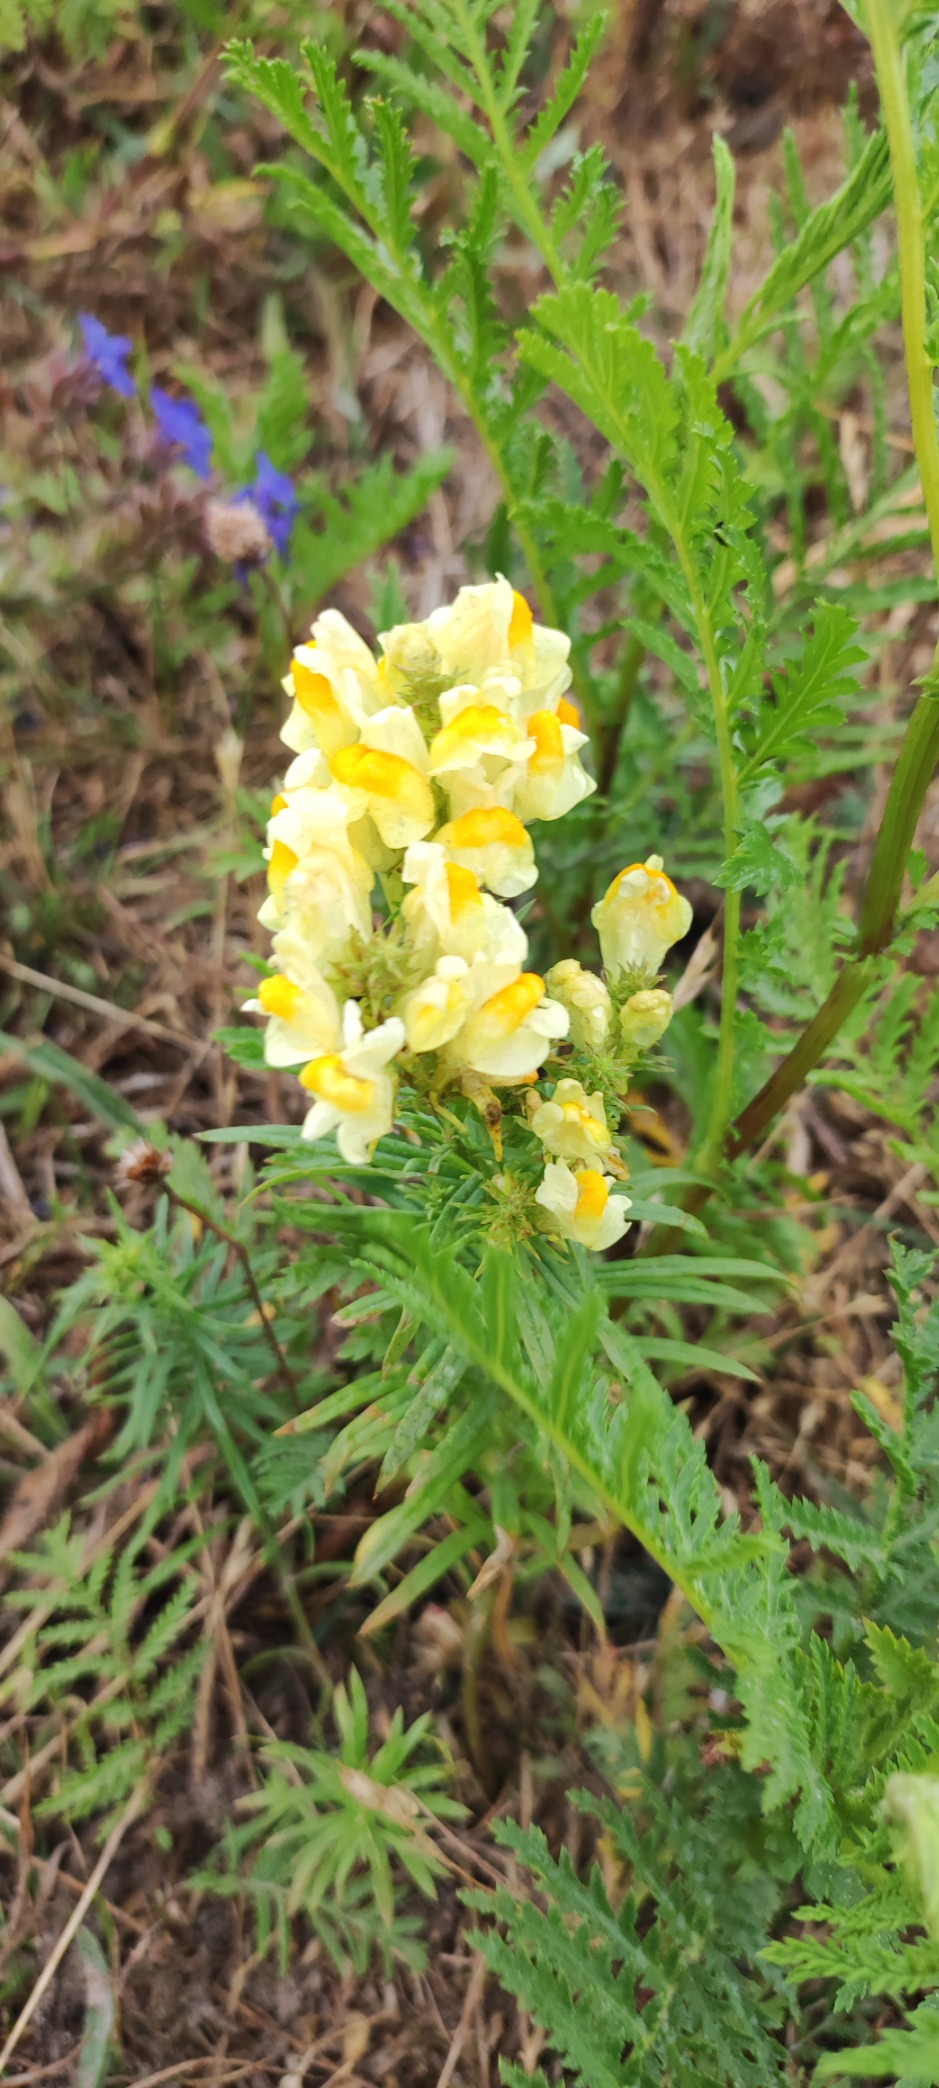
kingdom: Plantae
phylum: Tracheophyta
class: Magnoliopsida
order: Lamiales
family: Plantaginaceae
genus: Linaria
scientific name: Linaria vulgaris
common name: Almindelig torskemund
